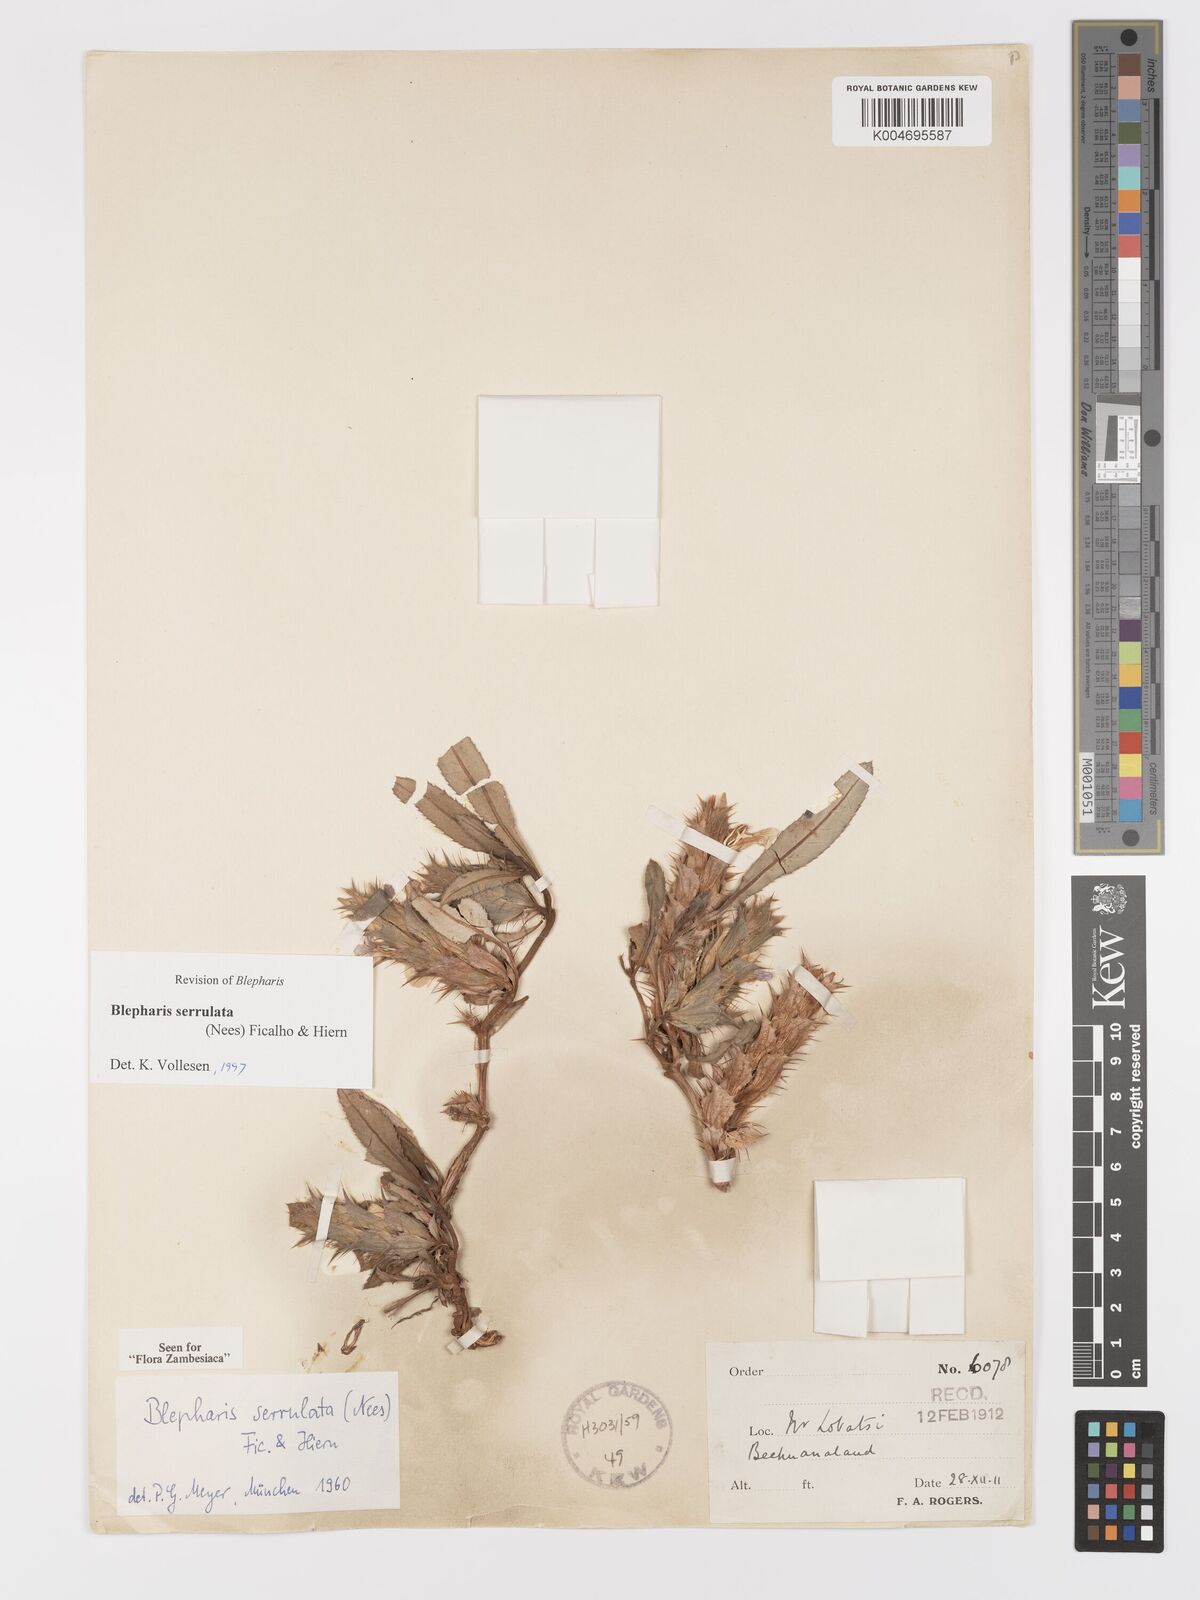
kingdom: Plantae
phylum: Tracheophyta
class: Magnoliopsida
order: Lamiales
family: Acanthaceae
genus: Blepharis
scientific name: Blepharis serrulata
